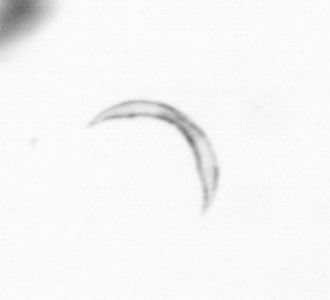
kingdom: Chromista
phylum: Ochrophyta
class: Bacillariophyceae
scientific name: Bacillariophyceae
